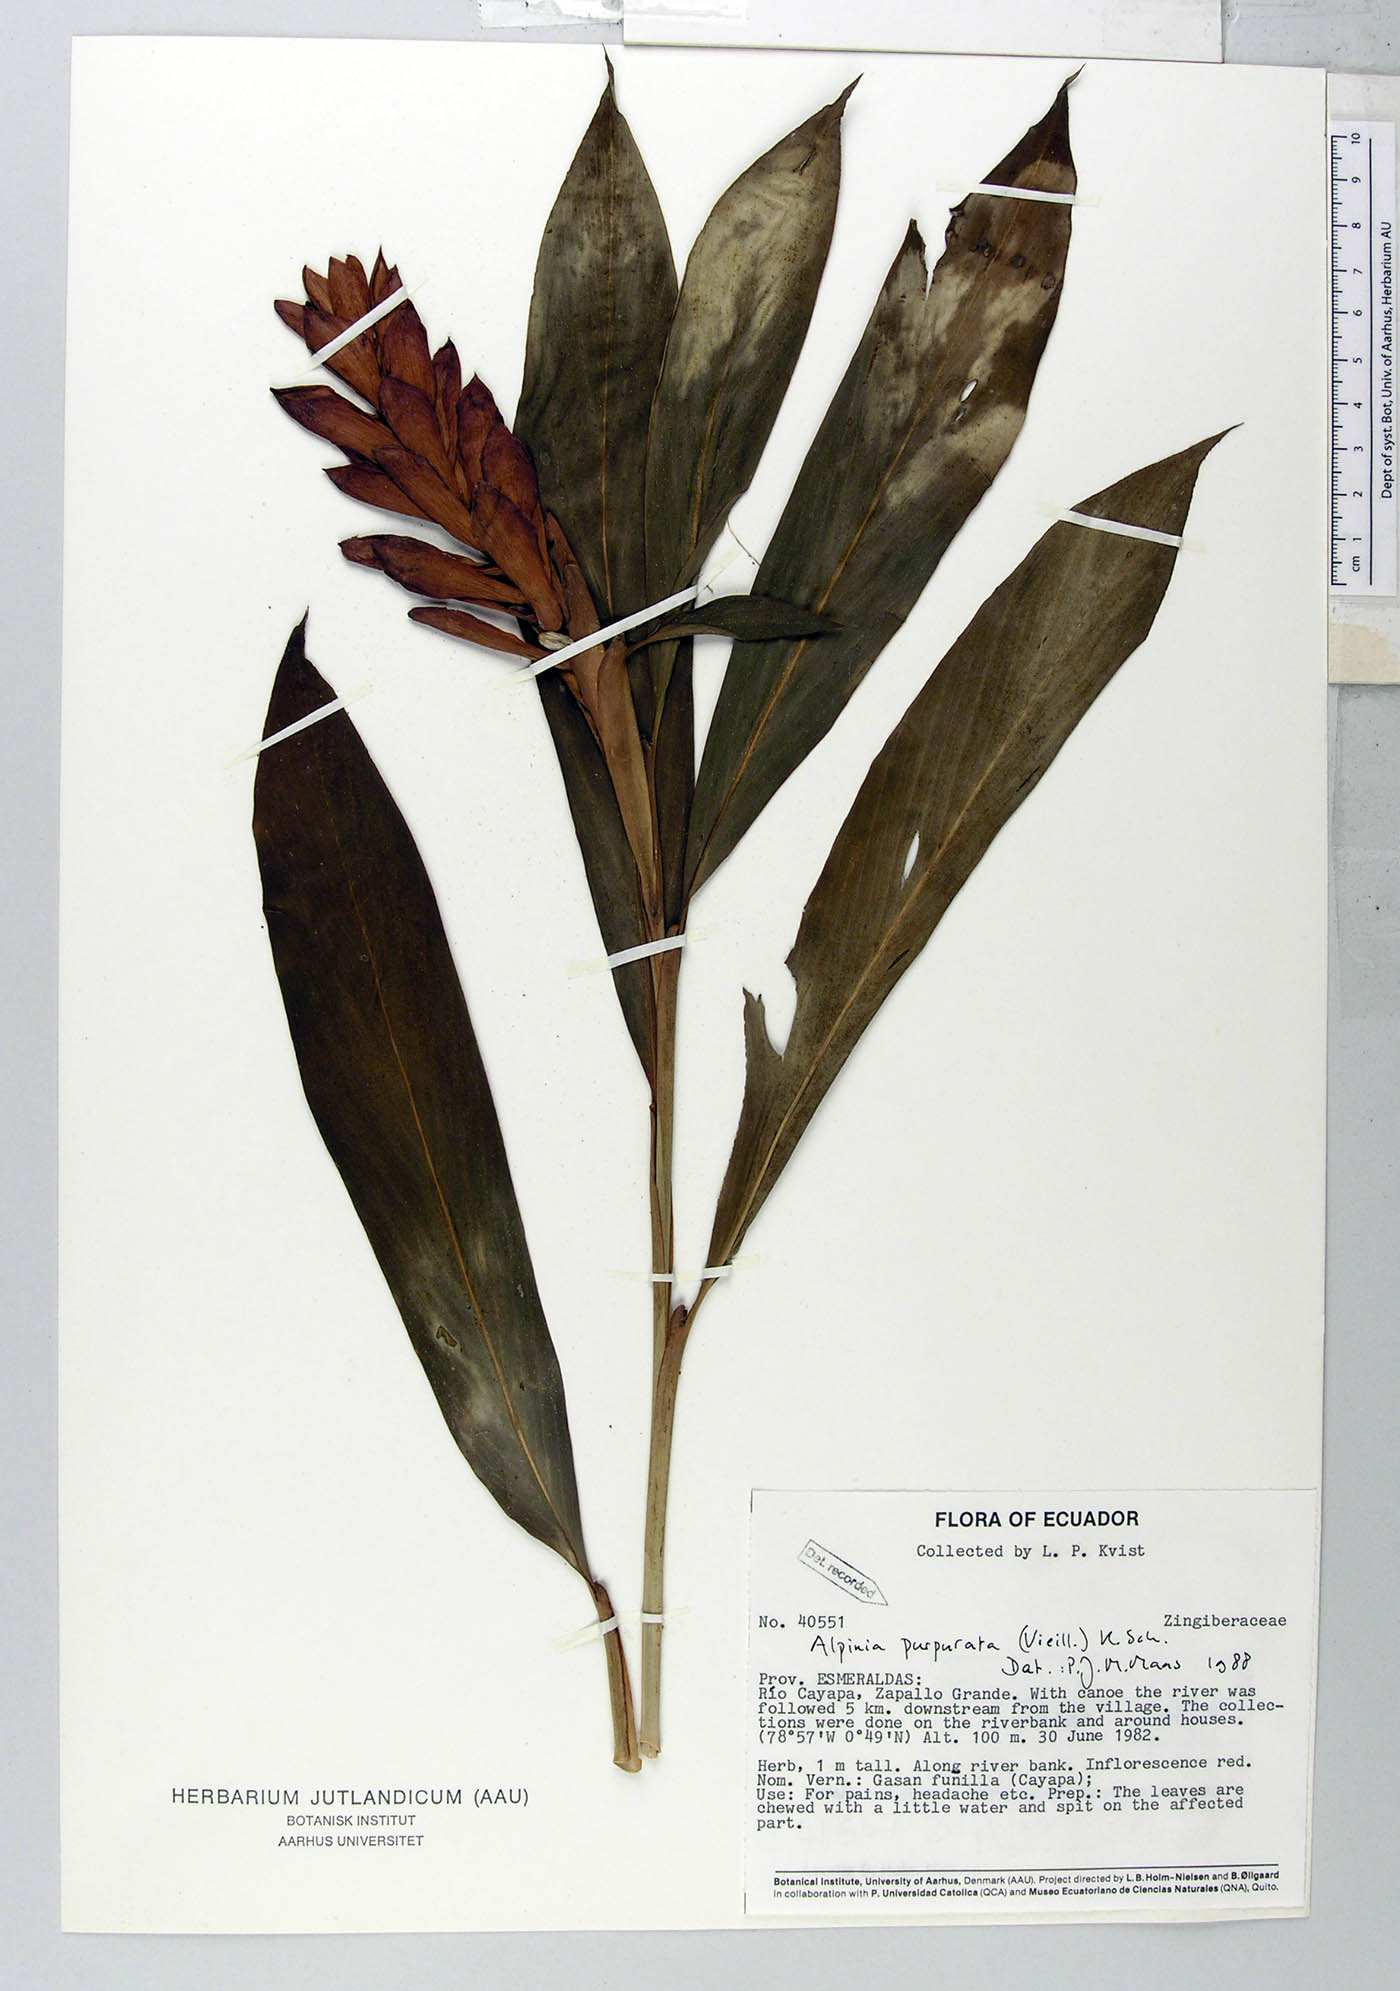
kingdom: Plantae
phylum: Tracheophyta
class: Liliopsida
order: Zingiberales
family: Zingiberaceae
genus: Alpinia
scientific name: Alpinia purpurata
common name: Red ginger
